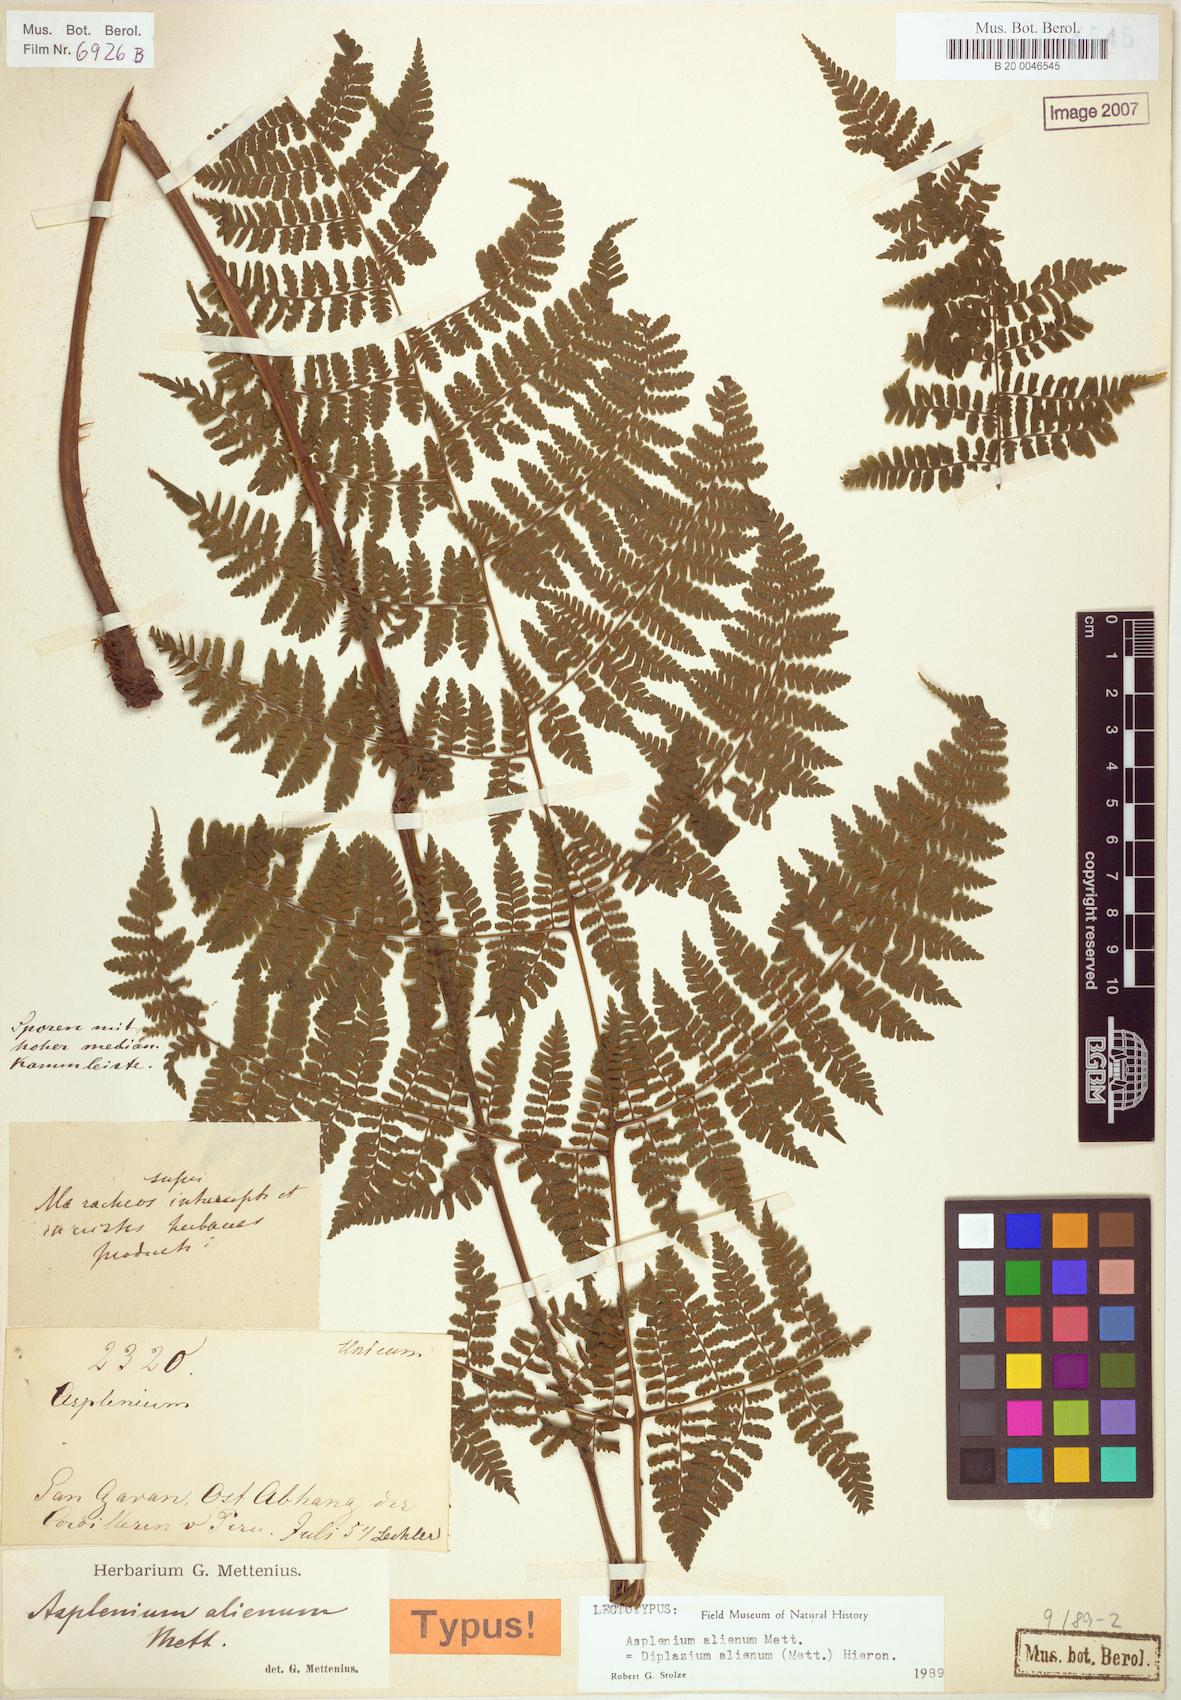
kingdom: Plantae
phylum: Tracheophyta
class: Polypodiopsida
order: Polypodiales
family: Athyriaceae
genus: Diplazium
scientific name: Diplazium alienum
